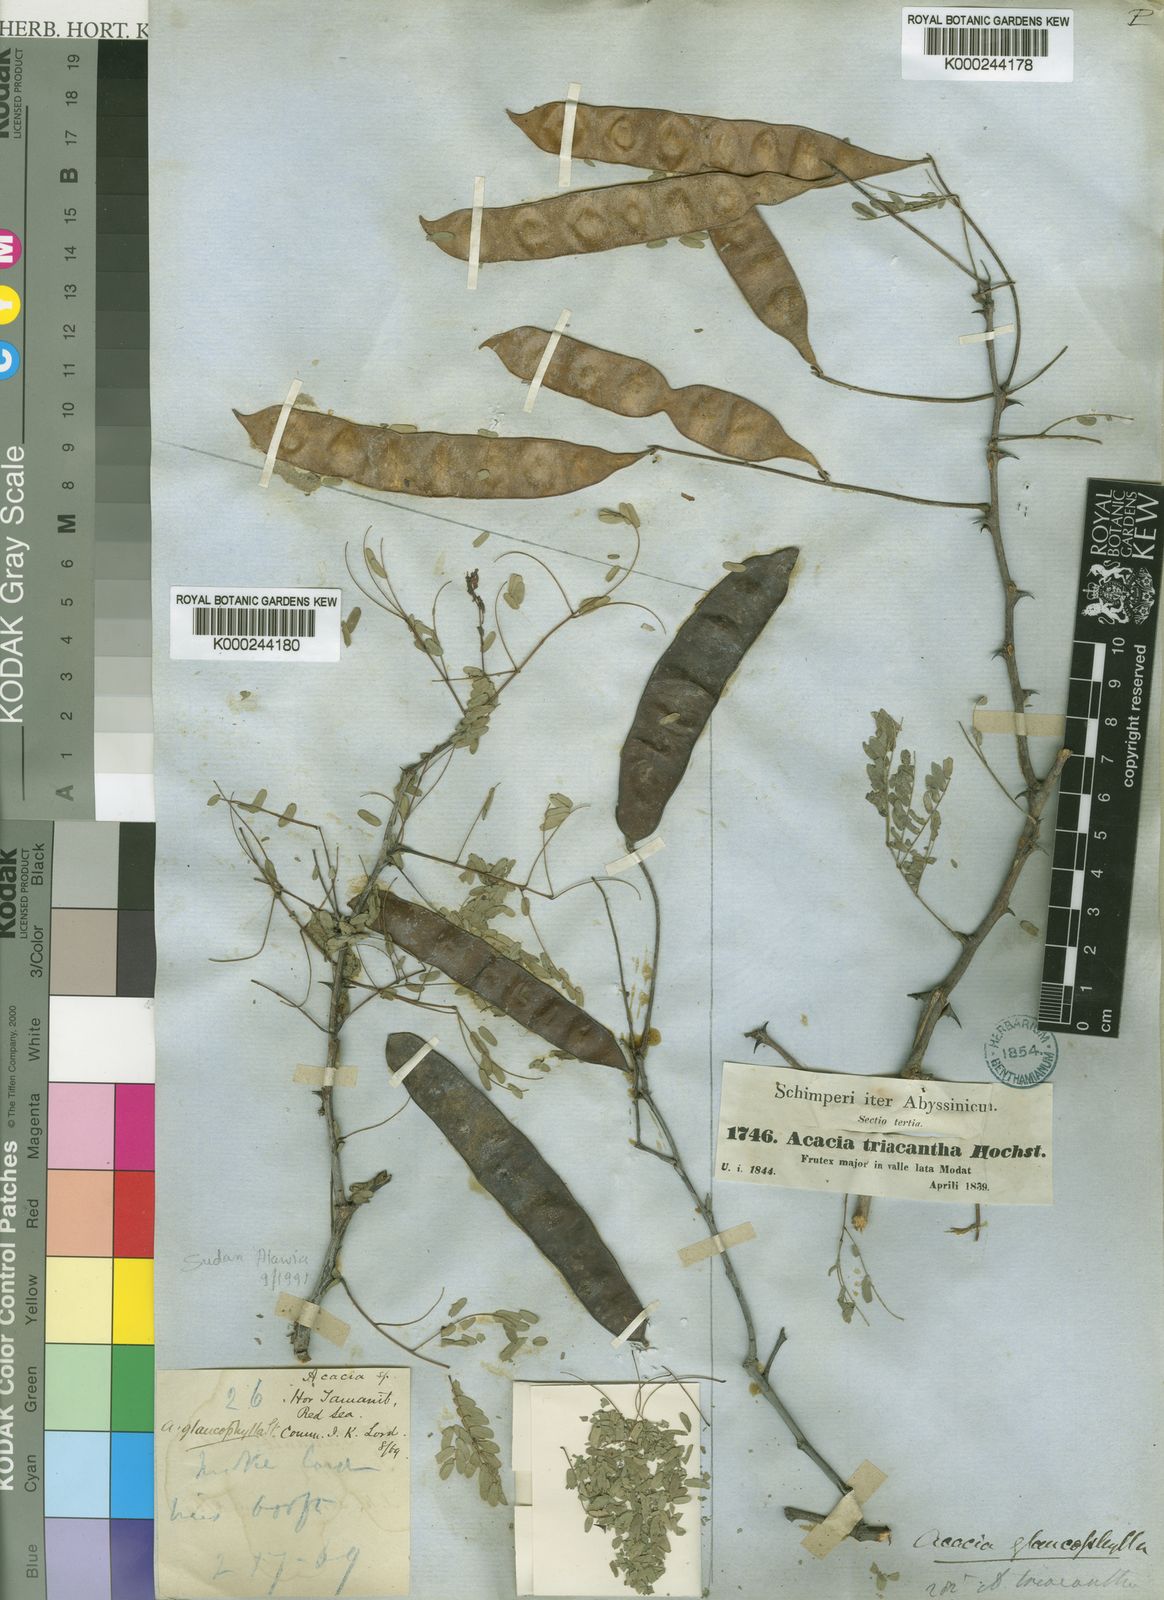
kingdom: Plantae
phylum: Tracheophyta
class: Magnoliopsida
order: Fabales
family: Fabaceae
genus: Senegalia
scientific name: Senegalia asak
